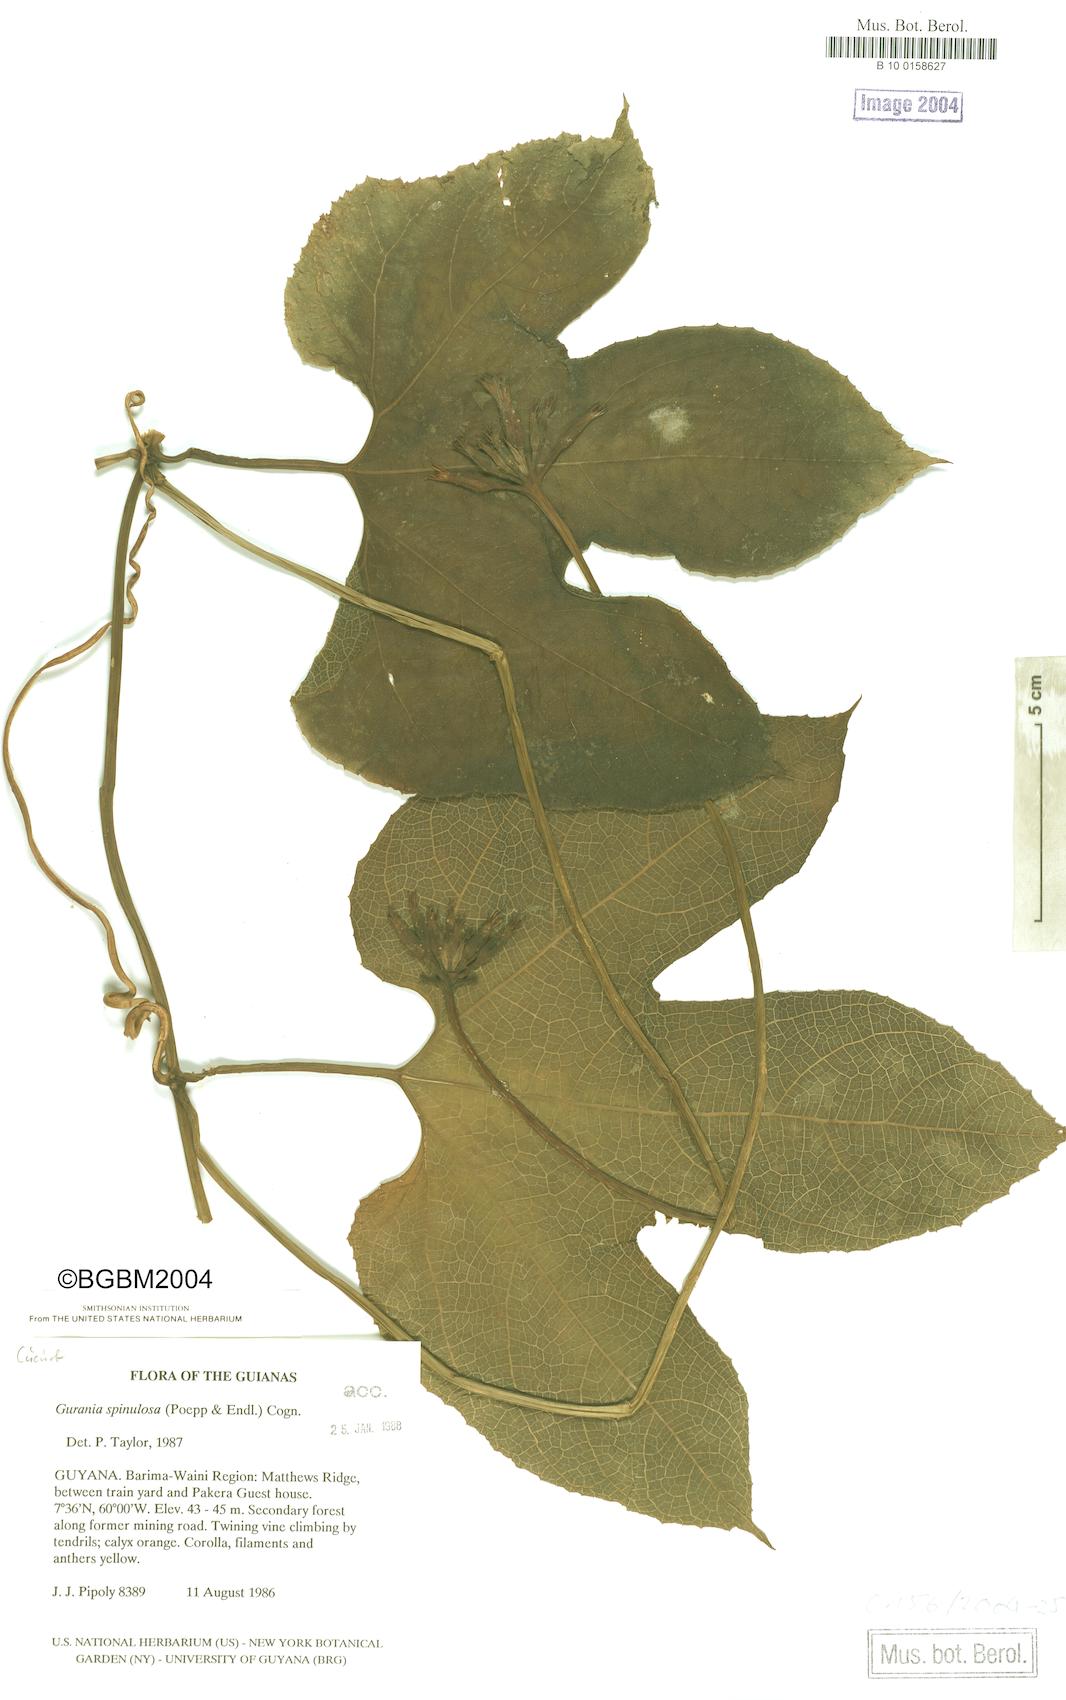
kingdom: Plantae
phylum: Tracheophyta
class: Magnoliopsida
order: Cucurbitales
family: Cucurbitaceae
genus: Gurania
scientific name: Gurania lobata
